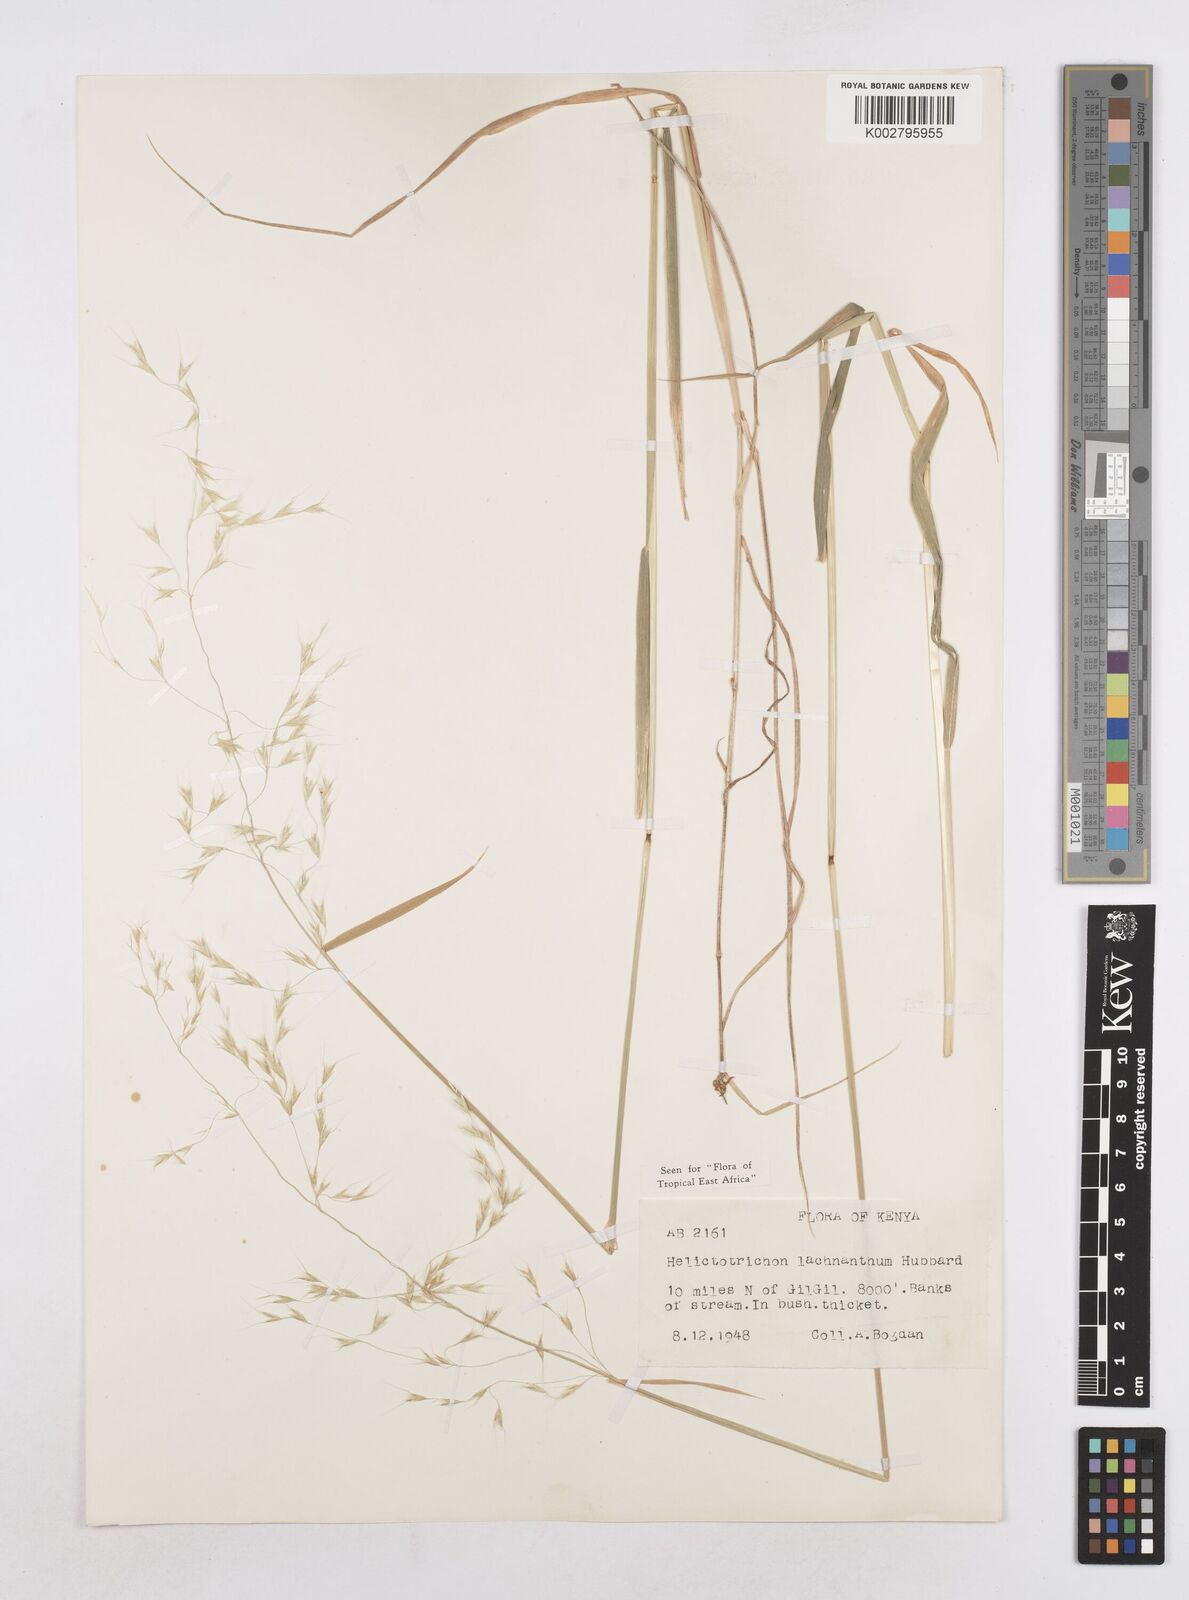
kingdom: Plantae
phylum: Tracheophyta
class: Liliopsida
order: Poales
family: Poaceae
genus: Trisetopsis
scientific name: Trisetopsis lachnantha
